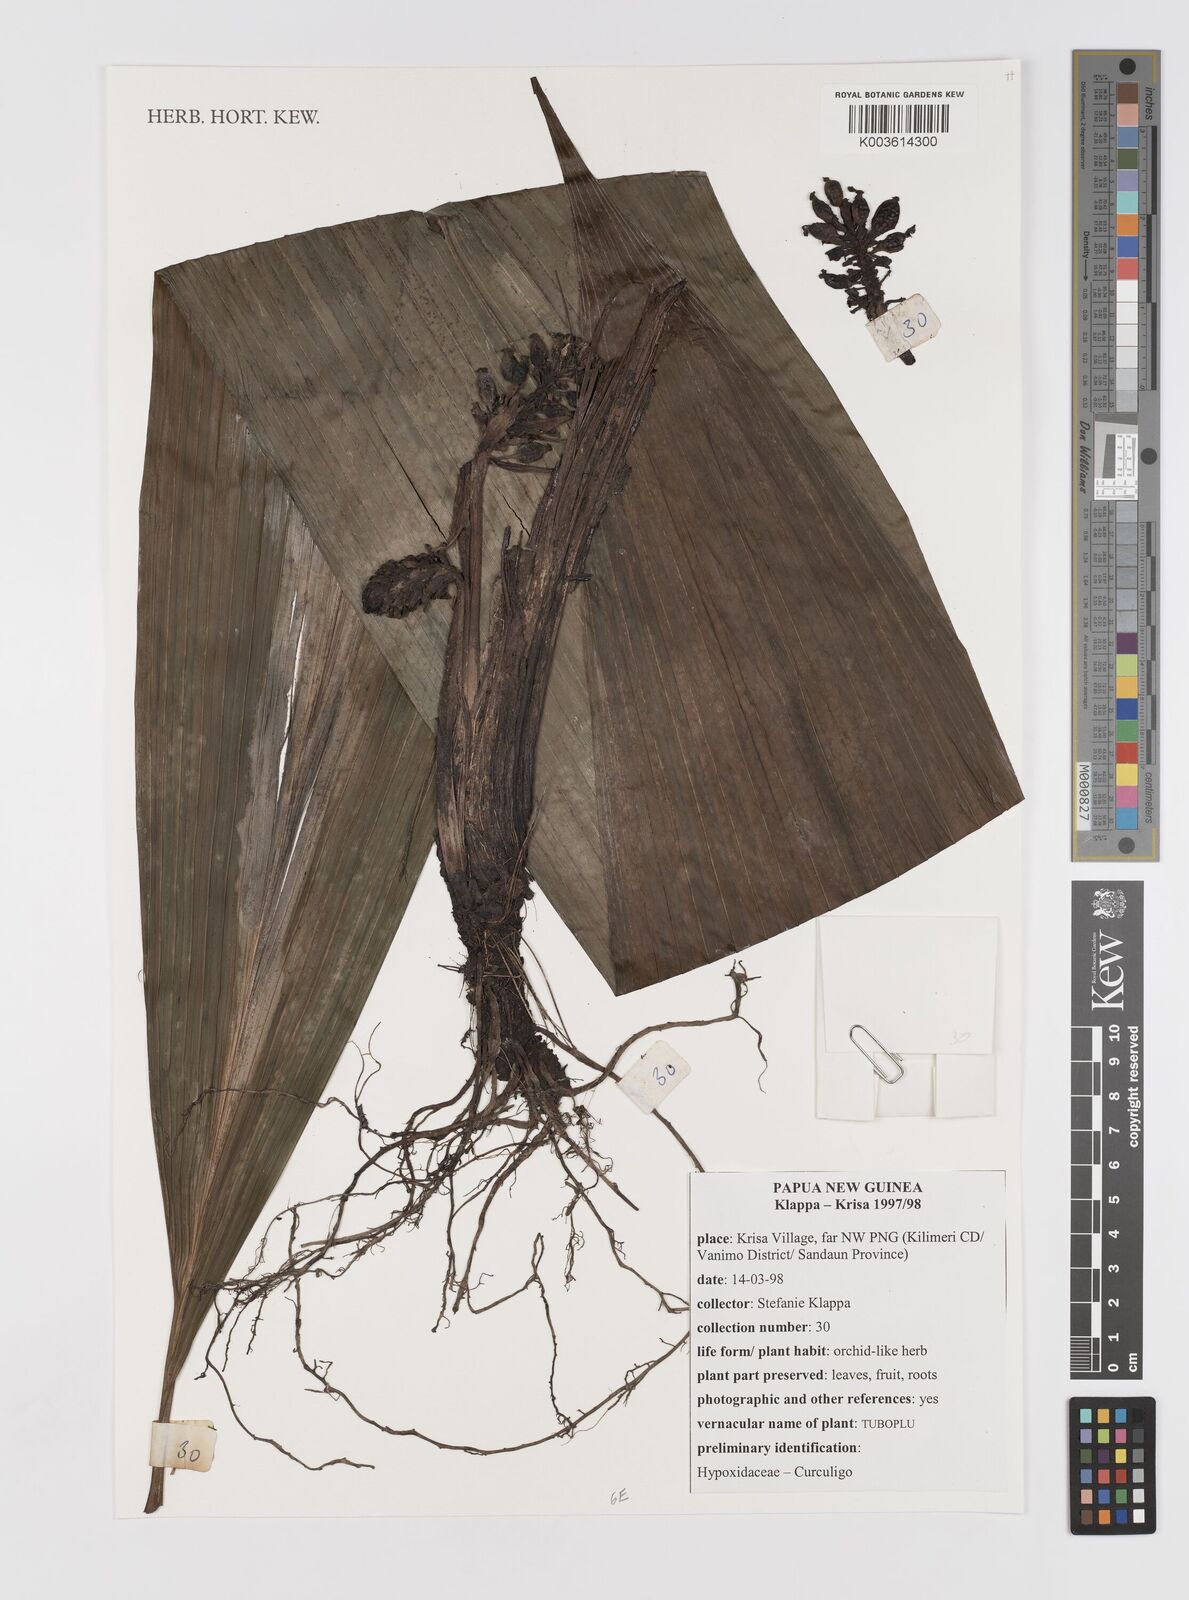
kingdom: Plantae
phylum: Tracheophyta
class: Liliopsida
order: Asparagales
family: Hypoxidaceae
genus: Curculigo
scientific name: Curculigo
